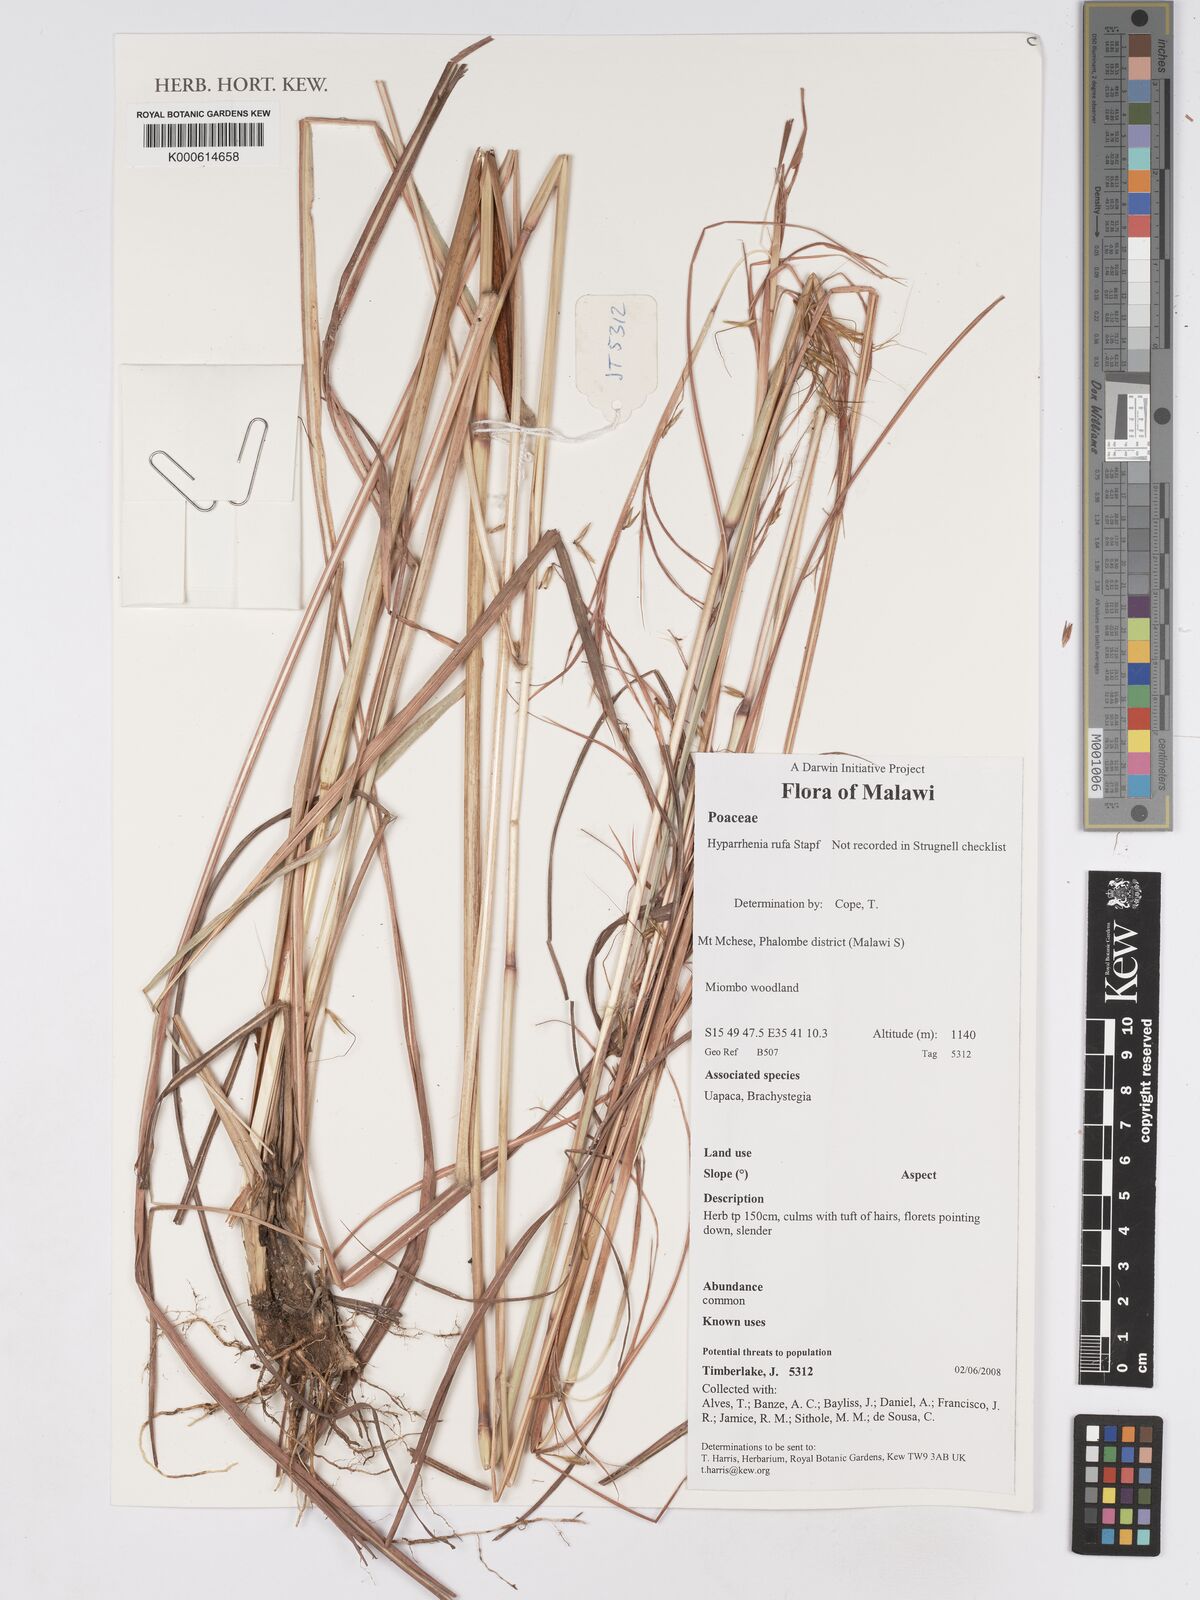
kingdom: Plantae
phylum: Tracheophyta
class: Liliopsida
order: Poales
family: Poaceae
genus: Hyparrhenia
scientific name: Hyparrhenia rufa
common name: Jaraguagrass
